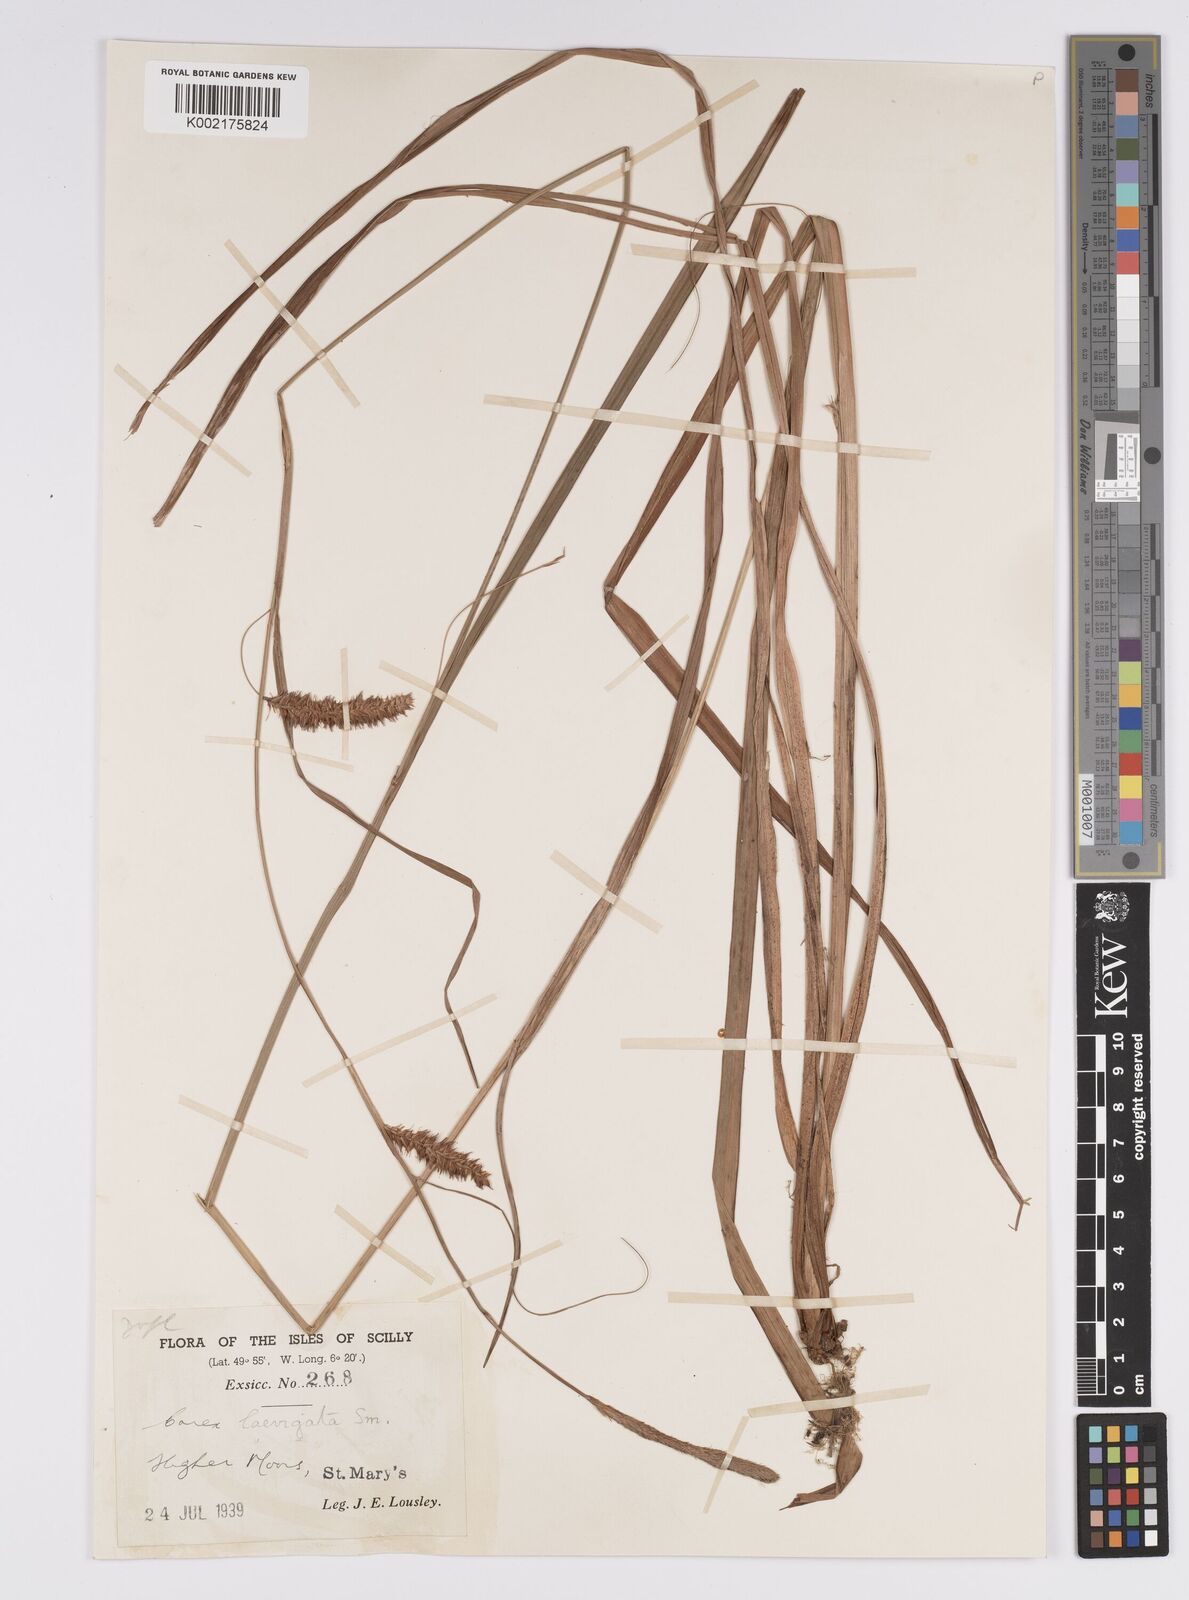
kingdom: Plantae
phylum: Tracheophyta
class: Liliopsida
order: Poales
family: Cyperaceae
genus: Carex
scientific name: Carex laevigata
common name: Smooth-stalked sedge
